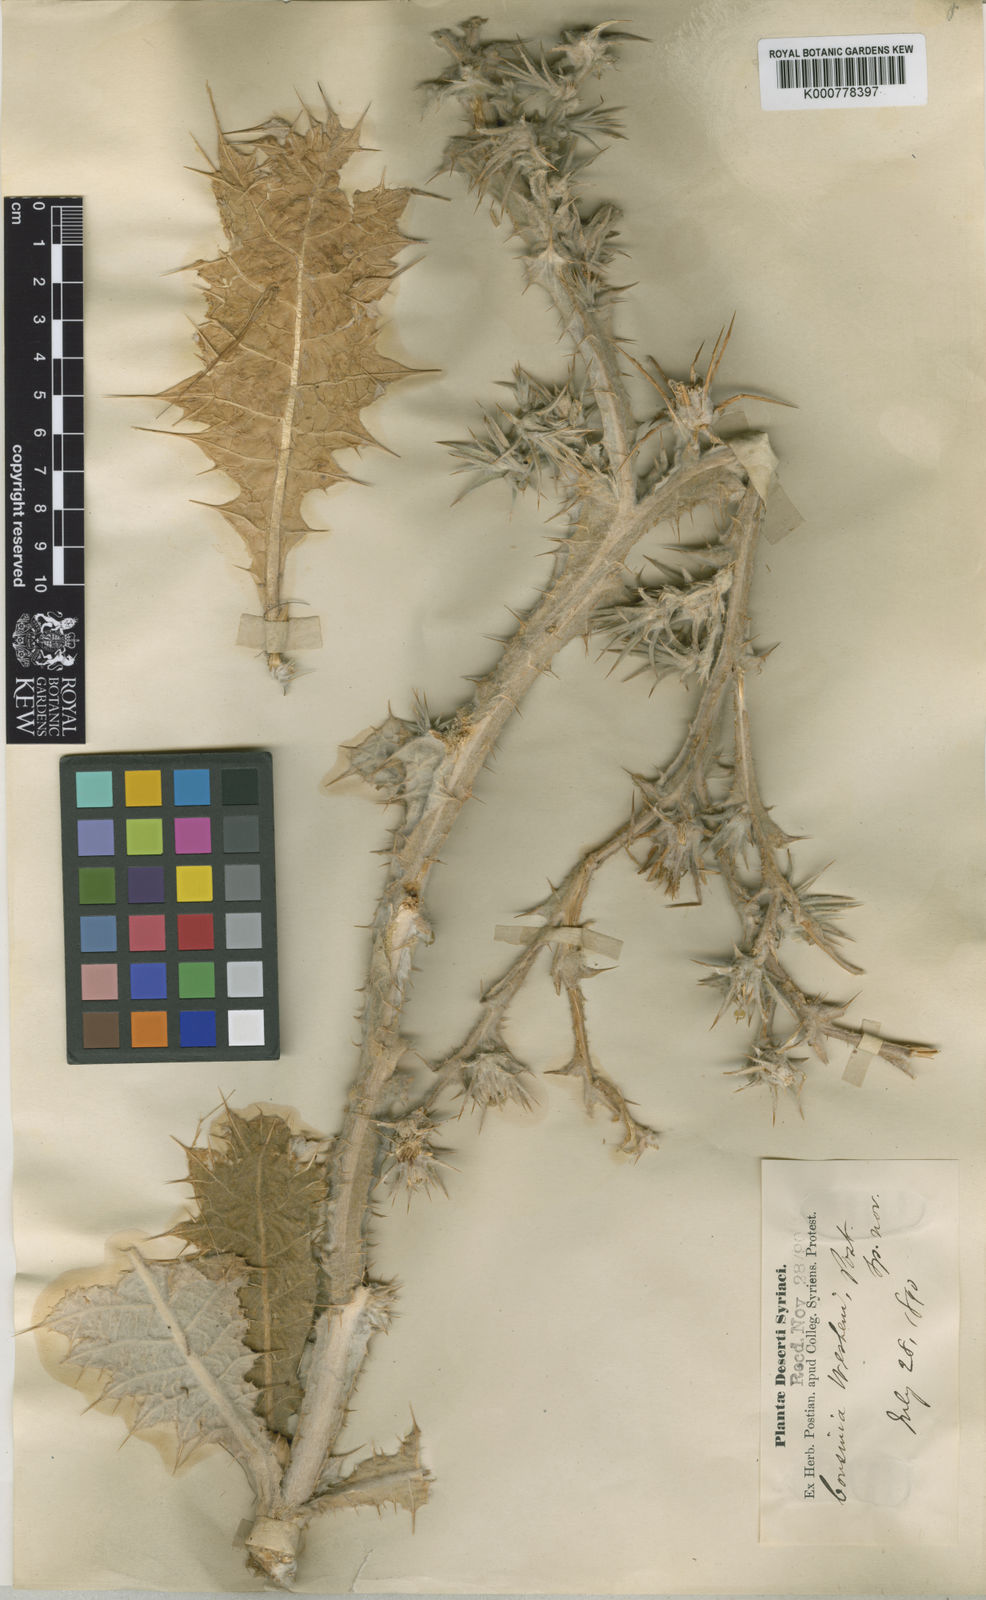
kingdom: Plantae
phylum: Tracheophyta
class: Magnoliopsida
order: Asterales
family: Asteraceae
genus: Cousinia
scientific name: Cousinia wesheni
